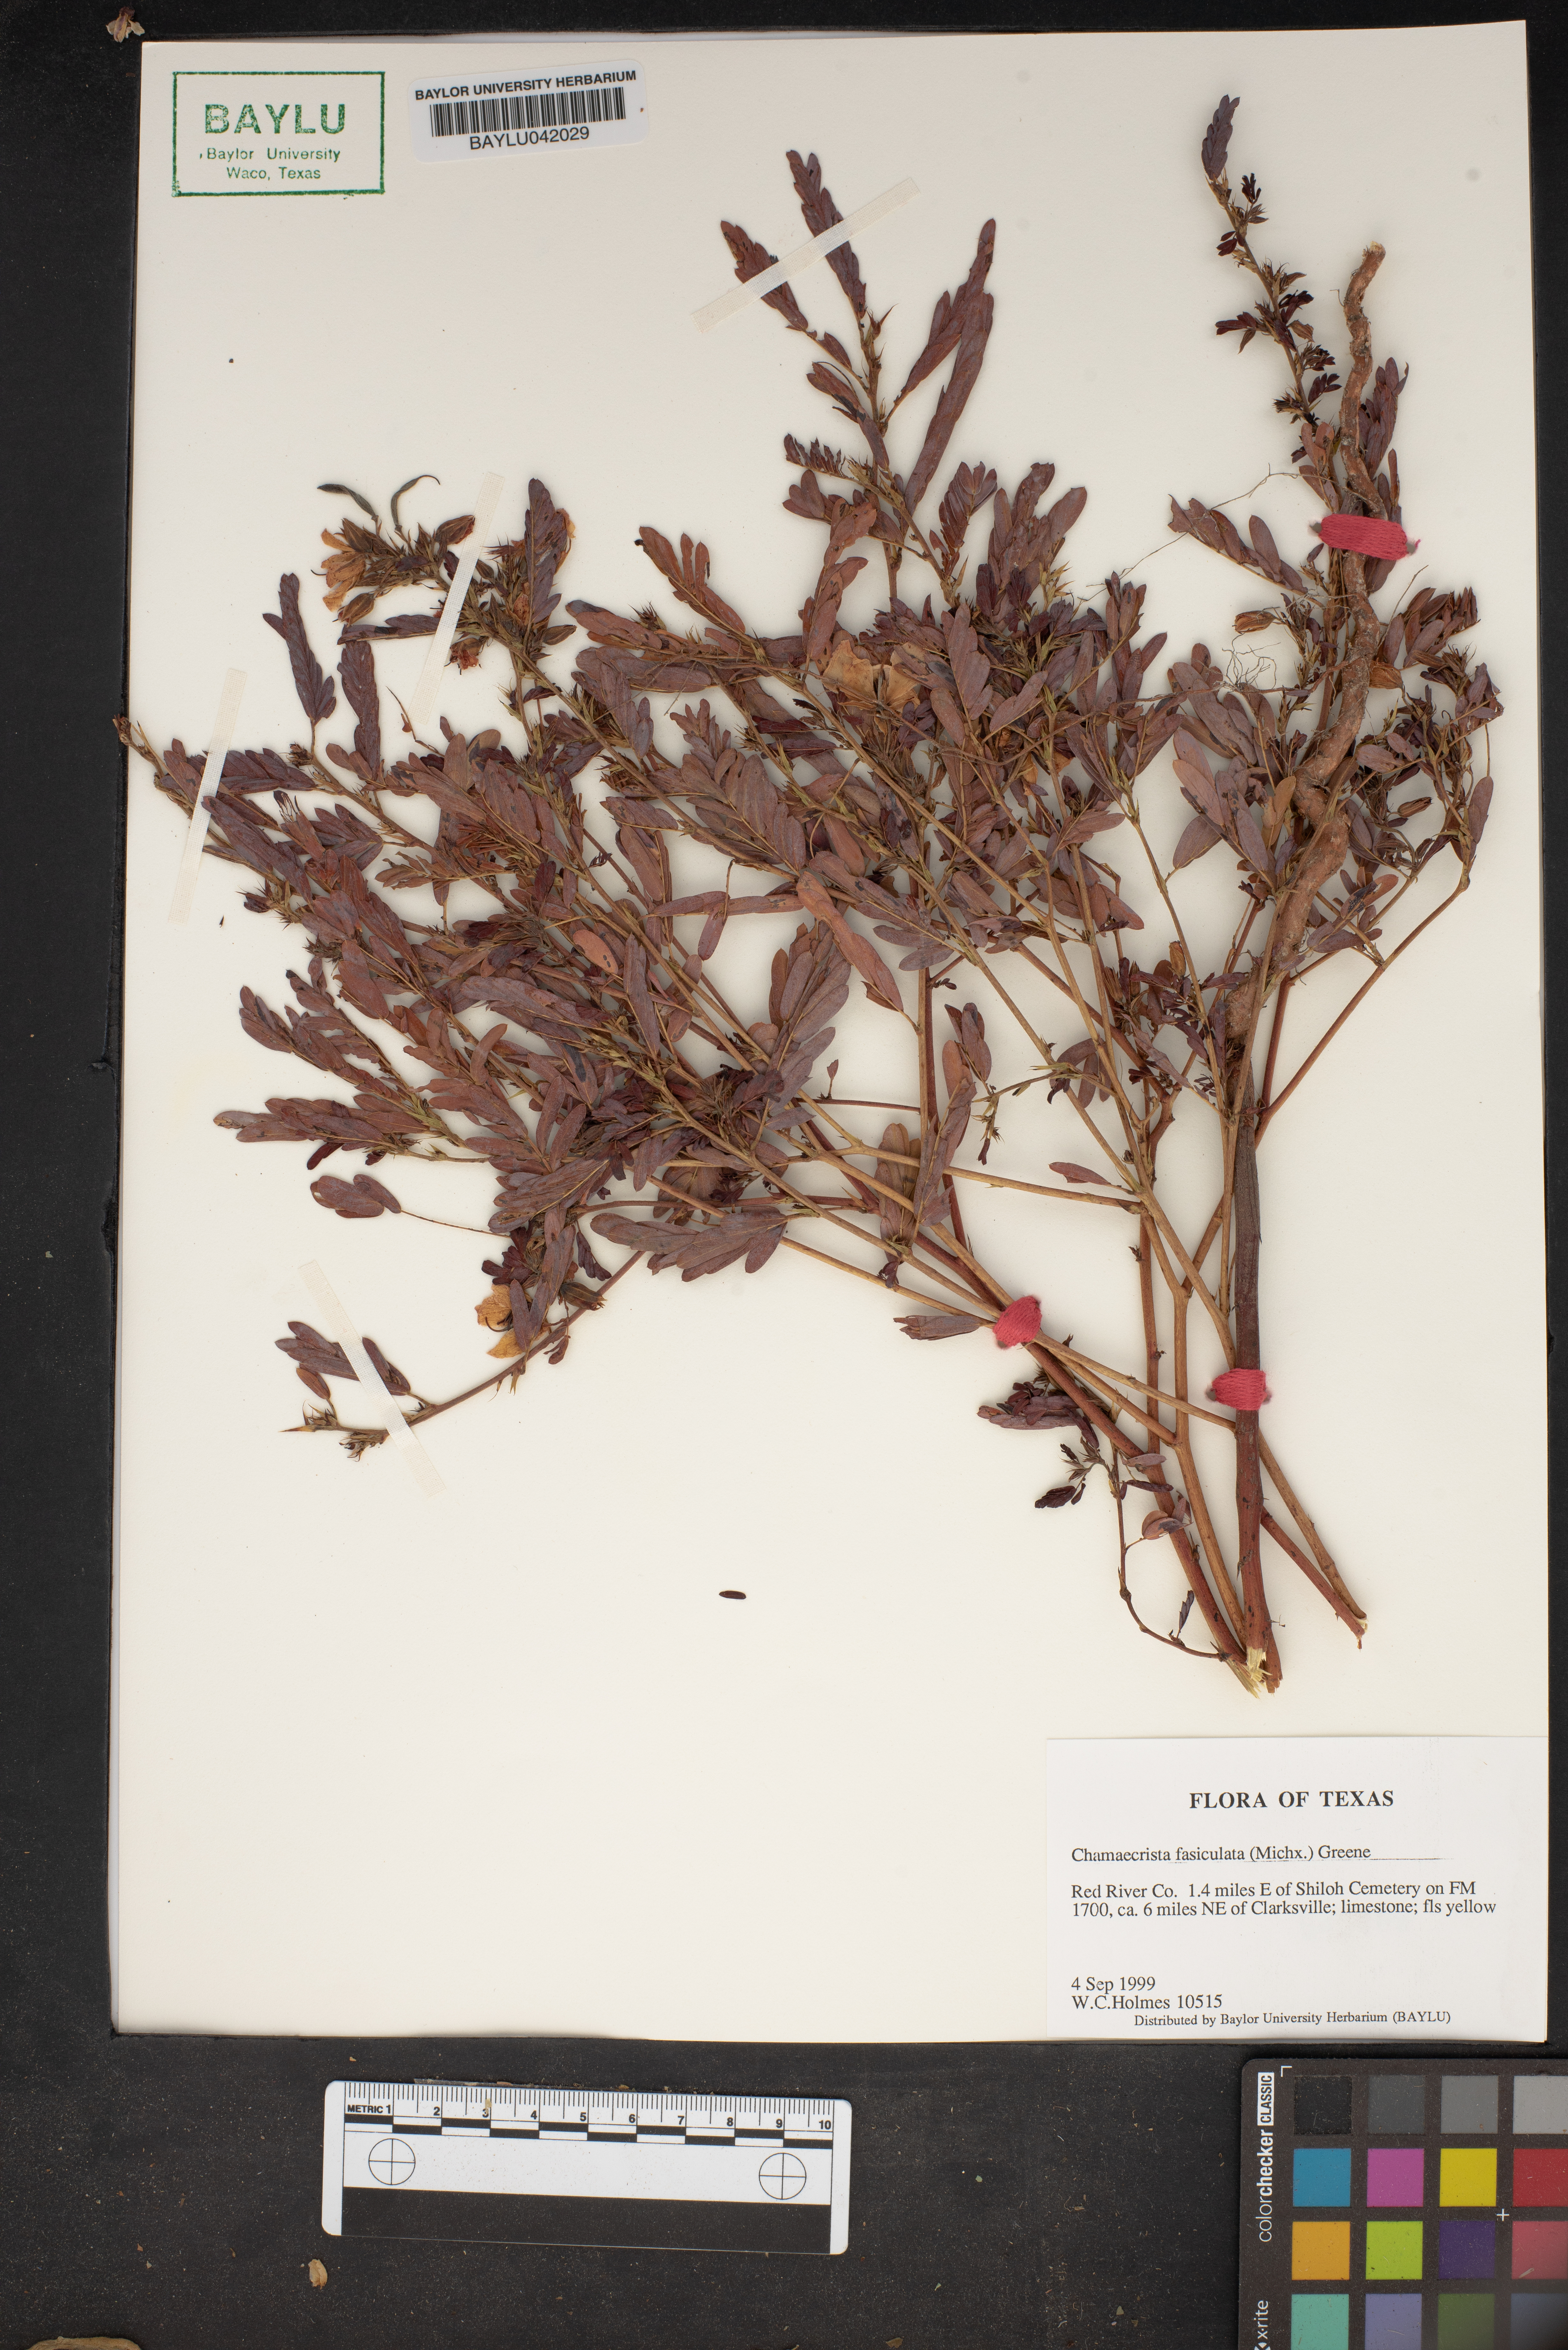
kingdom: Plantae
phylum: Tracheophyta
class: Magnoliopsida
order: Fabales
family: Fabaceae
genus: Chamaecrista
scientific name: Chamaecrista fasciculata
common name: Golden cassia
